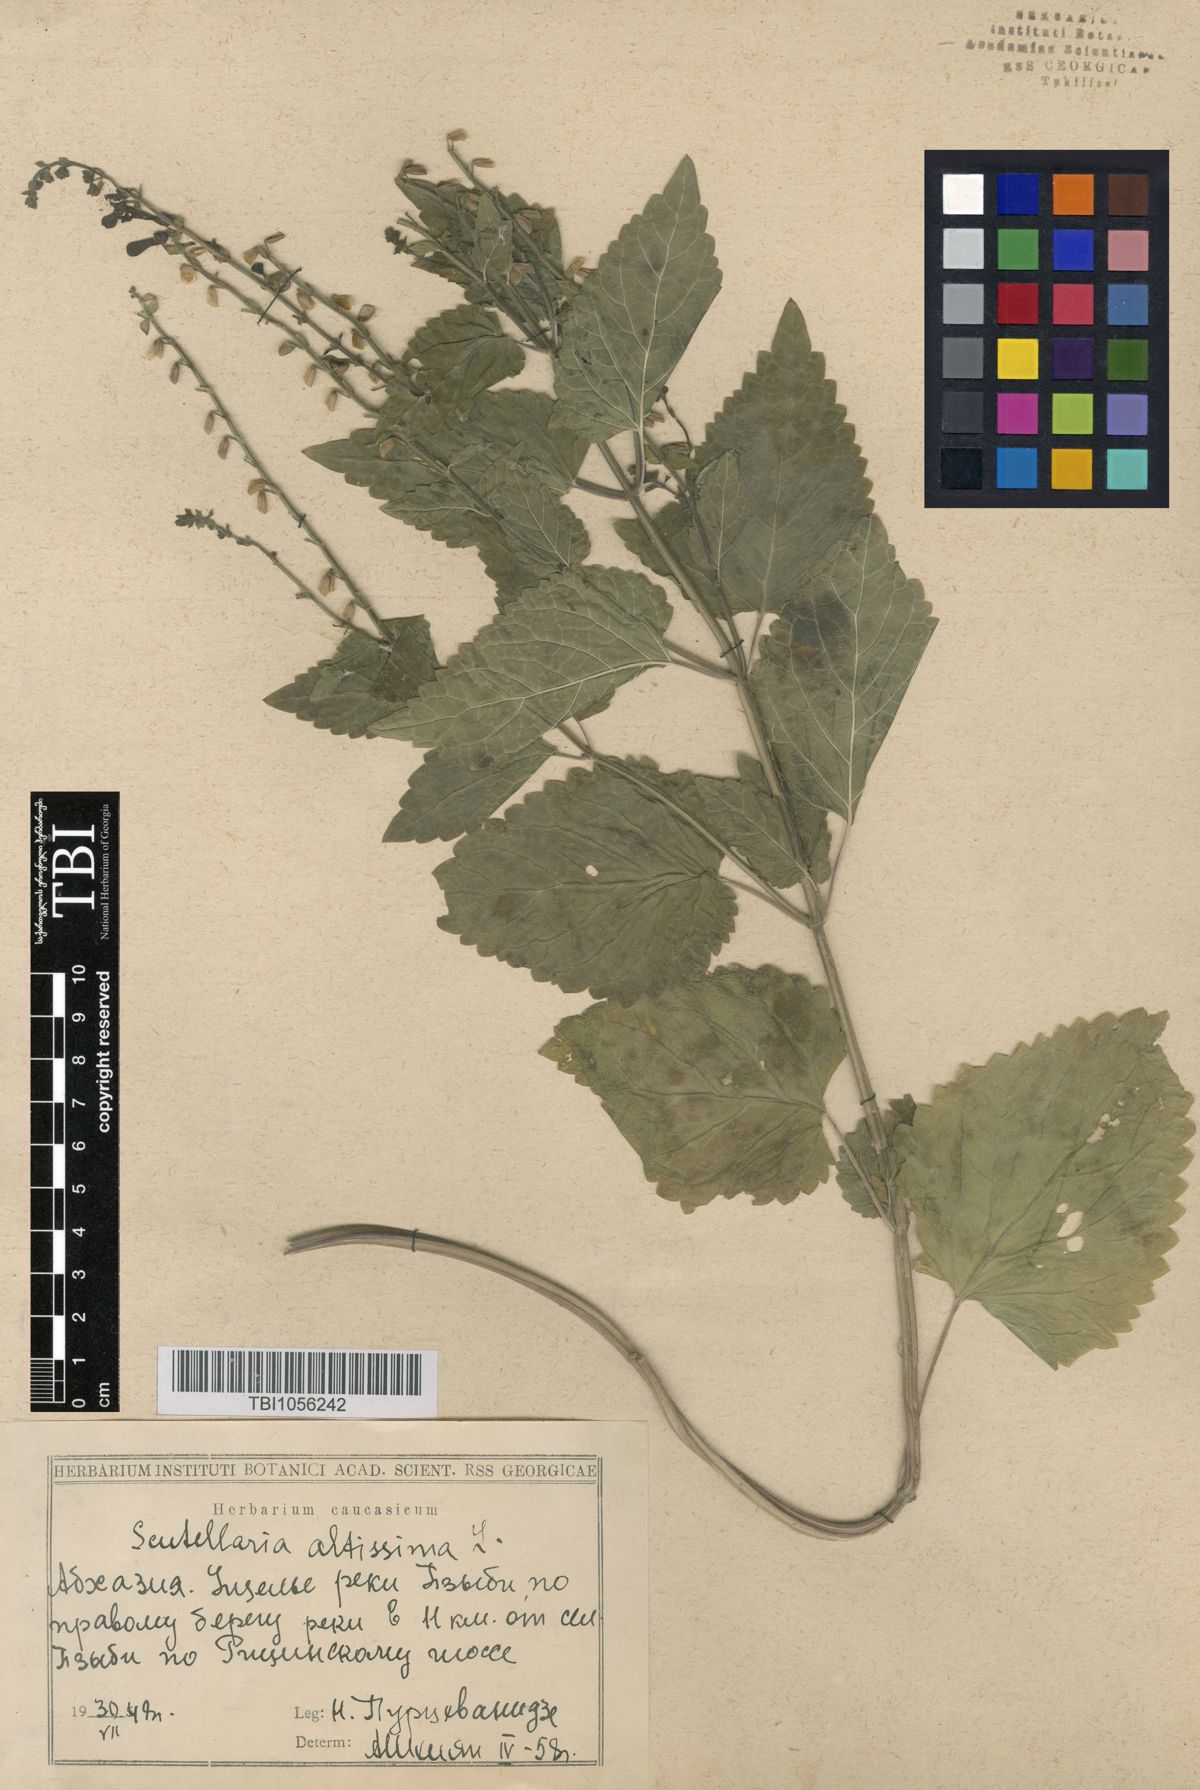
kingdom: Plantae
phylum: Tracheophyta
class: Magnoliopsida
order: Lamiales
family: Lamiaceae
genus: Scutellaria
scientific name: Scutellaria altissima
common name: Somerset skullcap
